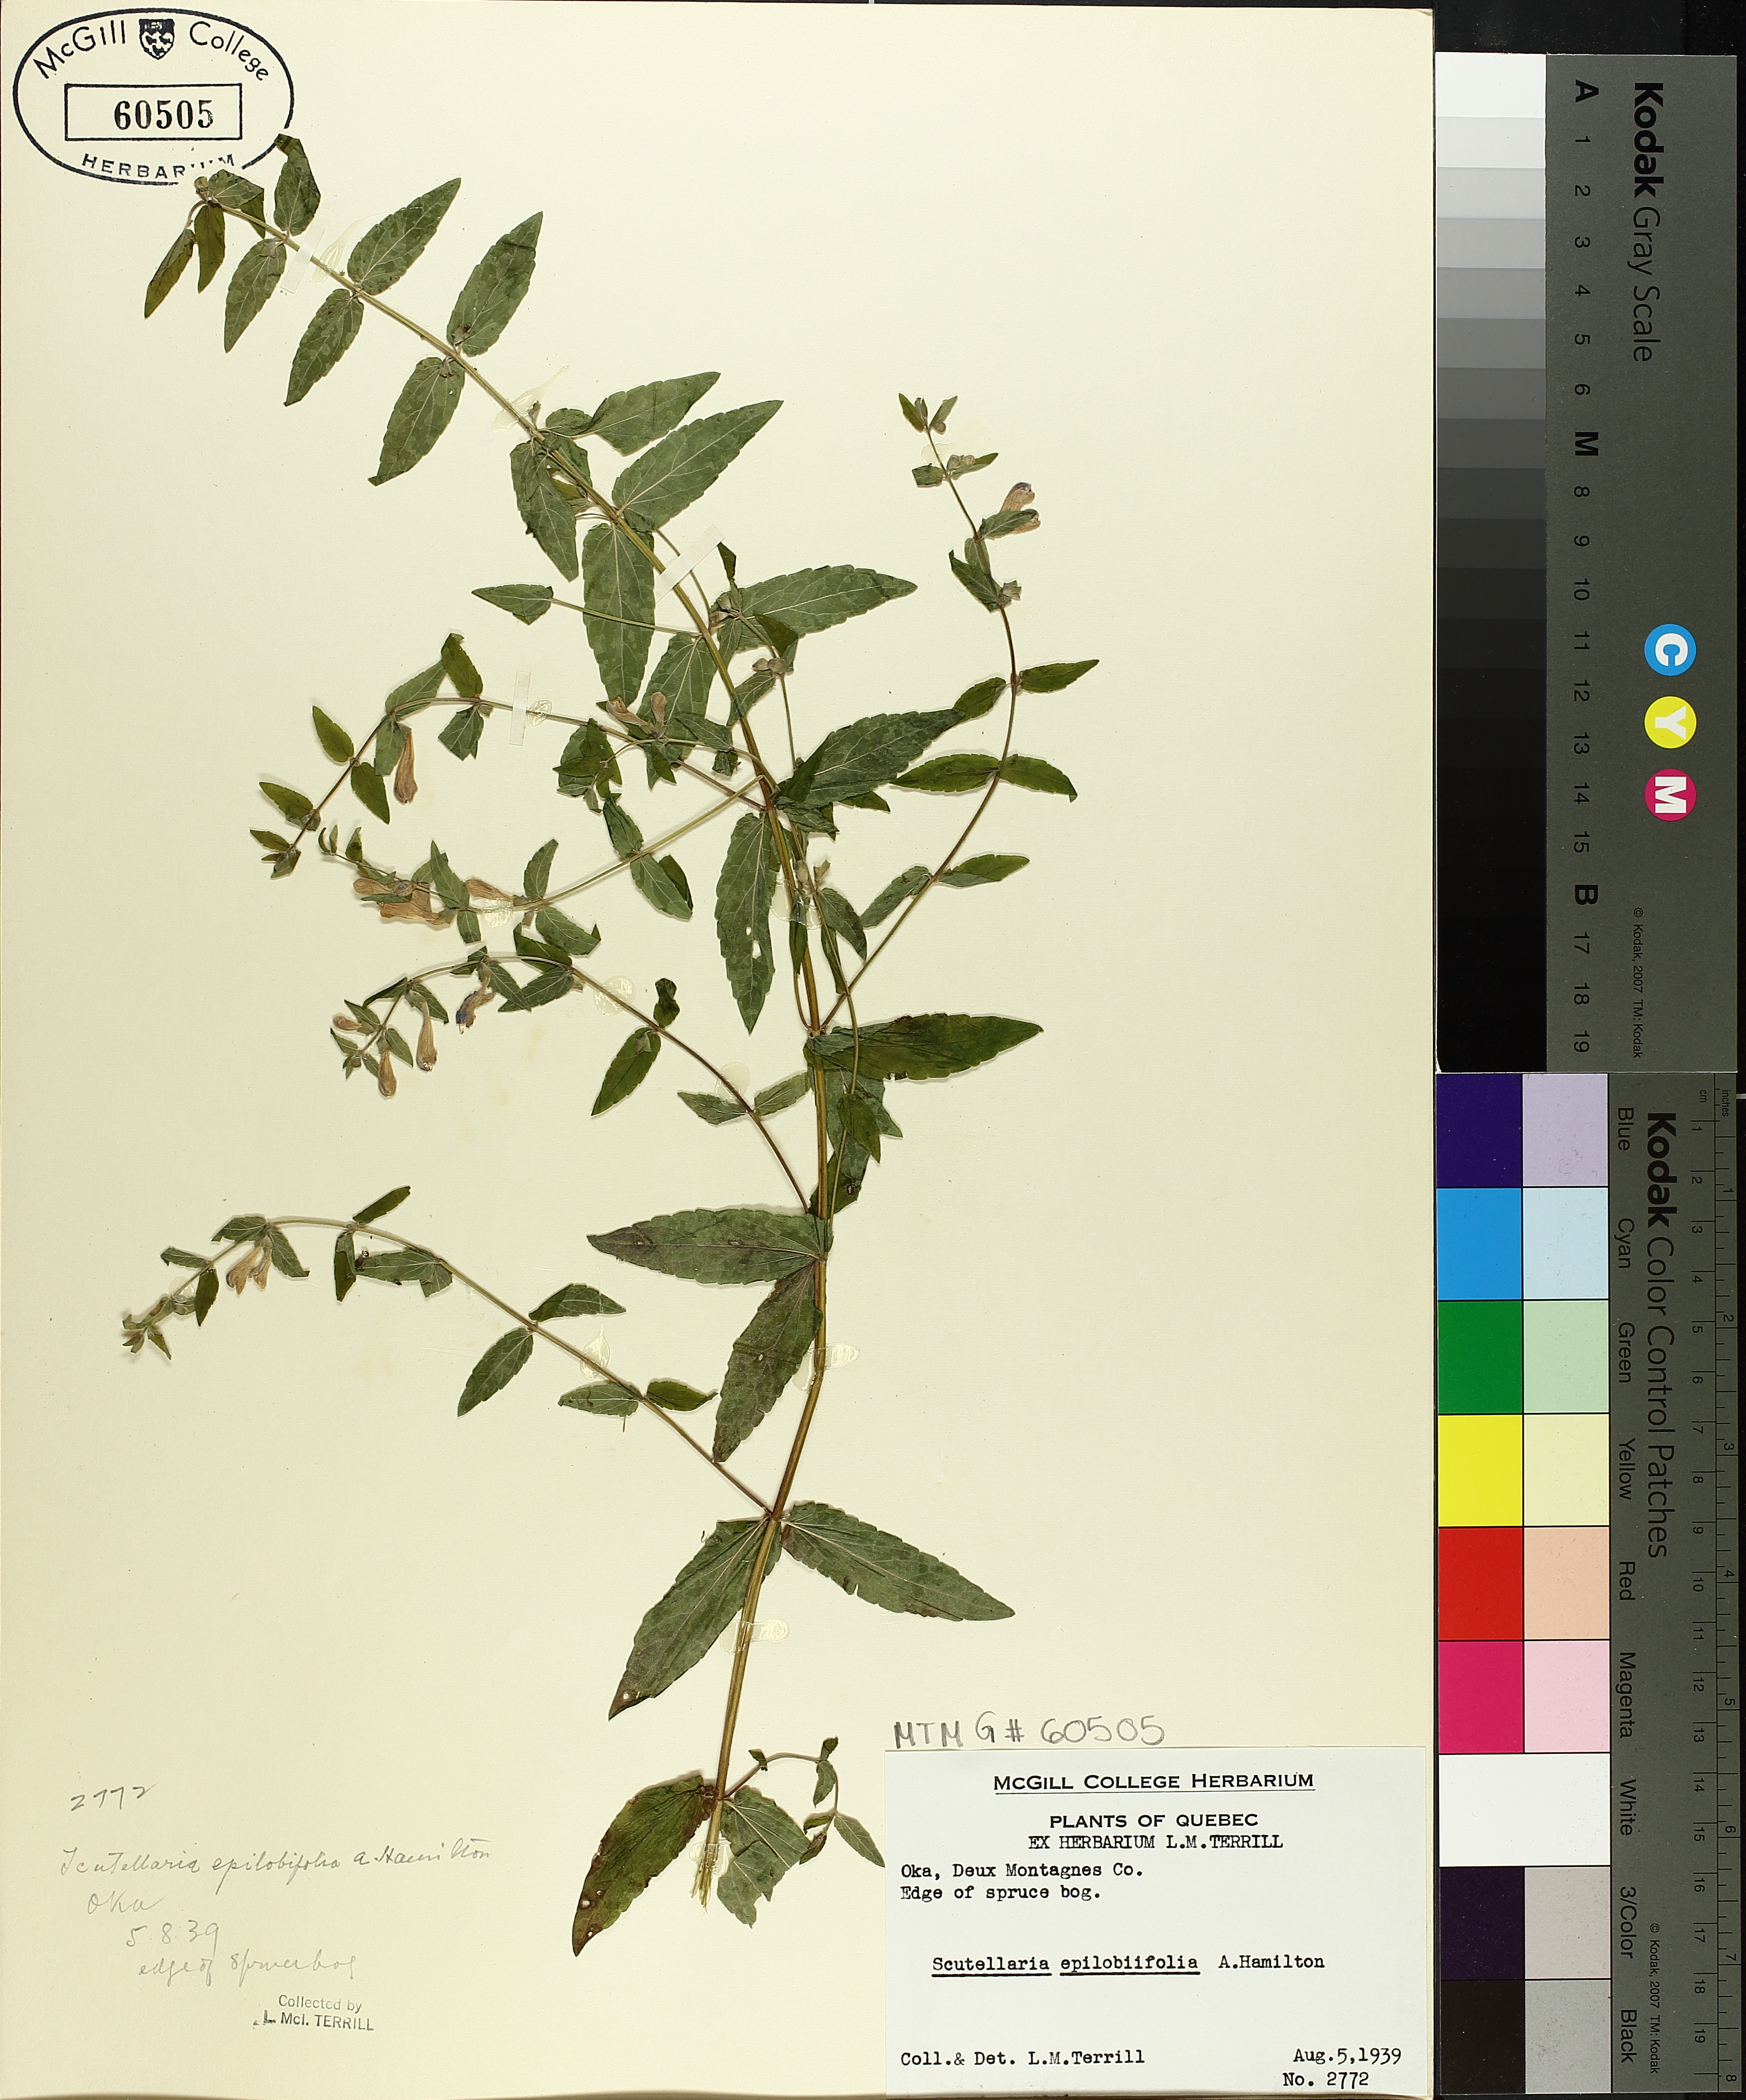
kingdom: Plantae
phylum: Tracheophyta
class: Magnoliopsida
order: Lamiales
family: Lamiaceae
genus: Scutellaria
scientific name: Scutellaria galericulata
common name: Skullcap
